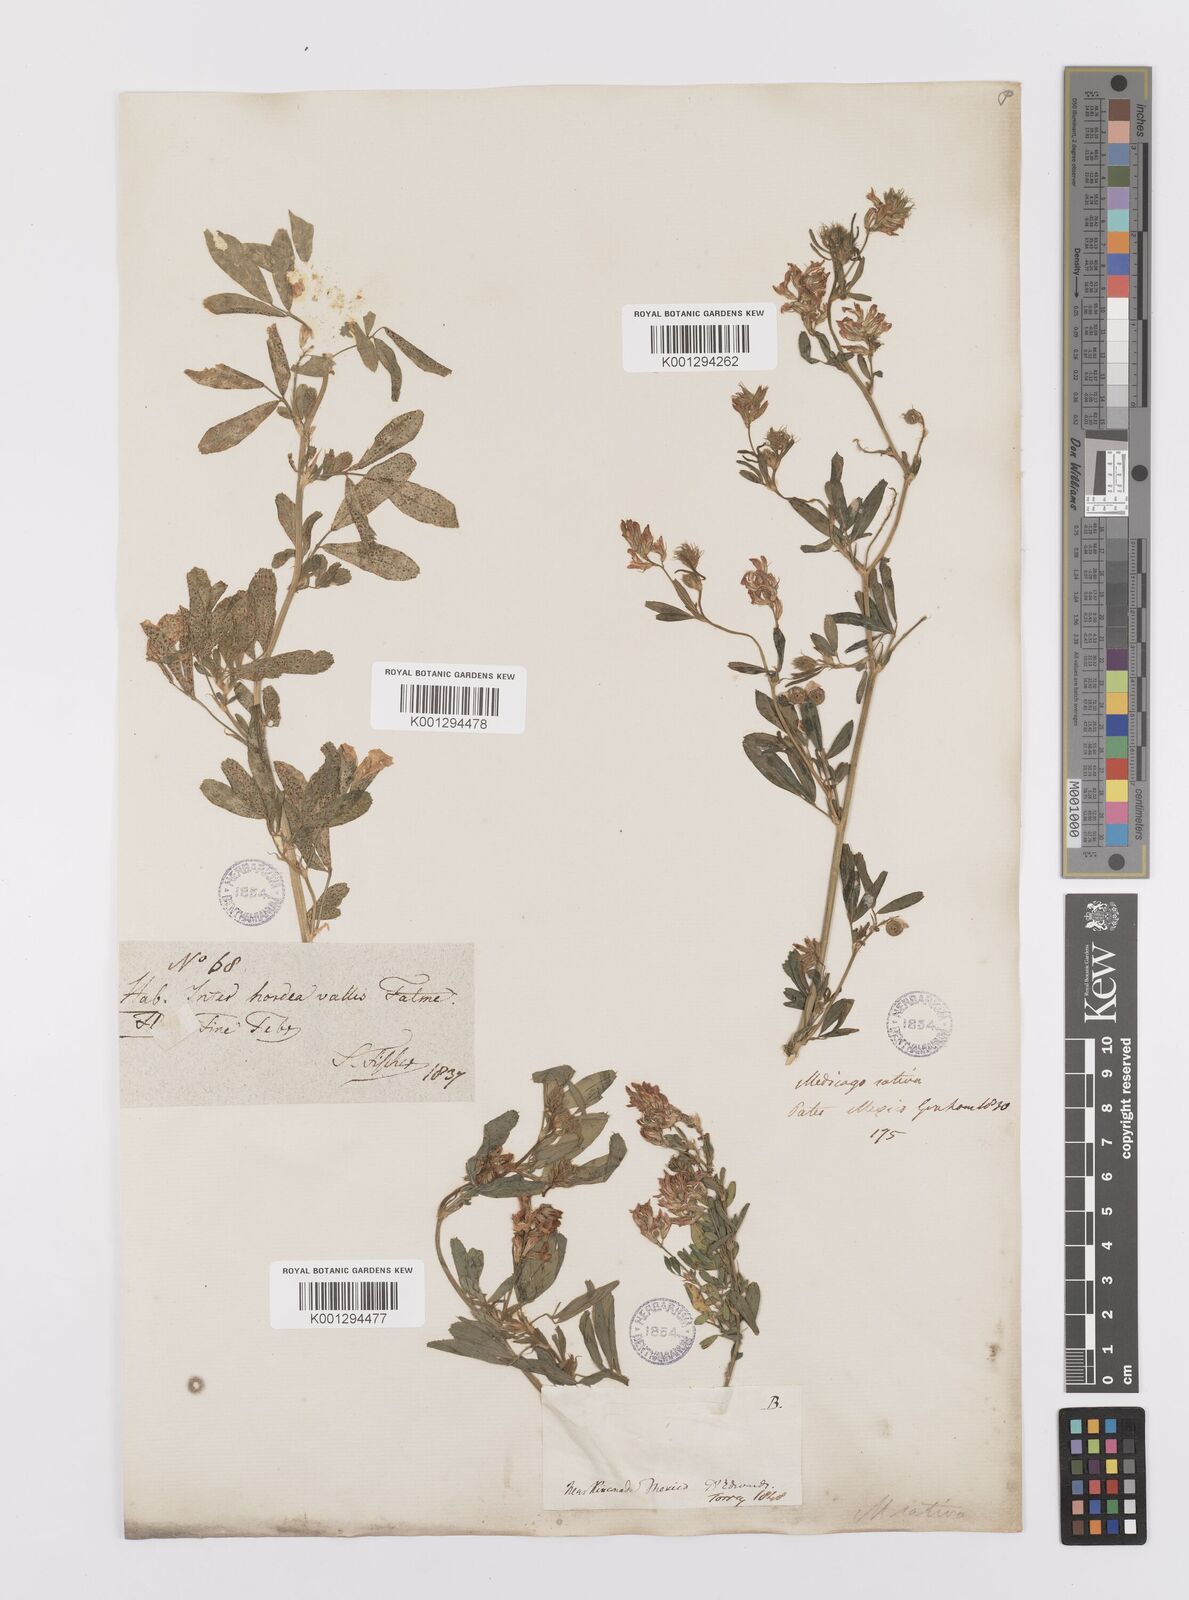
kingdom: Plantae
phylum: Tracheophyta
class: Magnoliopsida
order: Fabales
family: Fabaceae
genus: Medicago
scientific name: Medicago sativa
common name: Alfalfa
